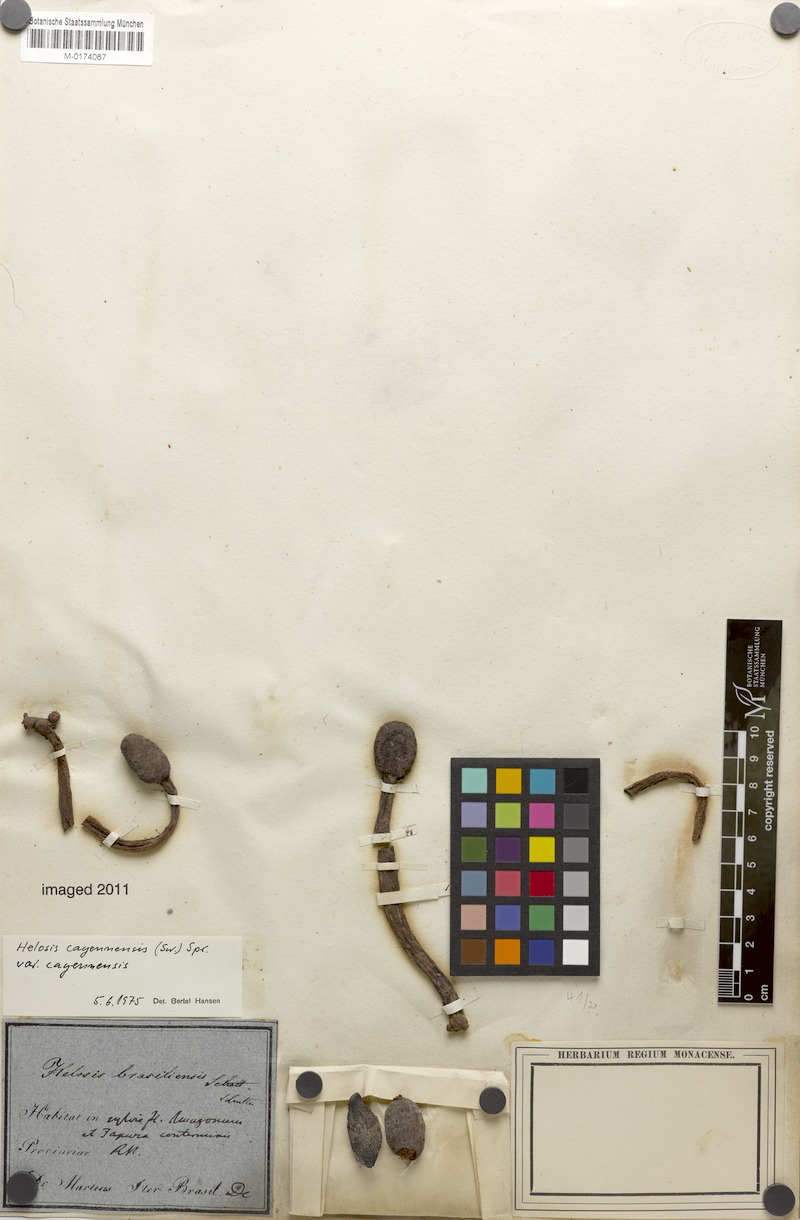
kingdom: Plantae
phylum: Tracheophyta
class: Magnoliopsida
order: Santalales
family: Balanophoraceae
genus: Helosis
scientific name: Helosis cayennensis
